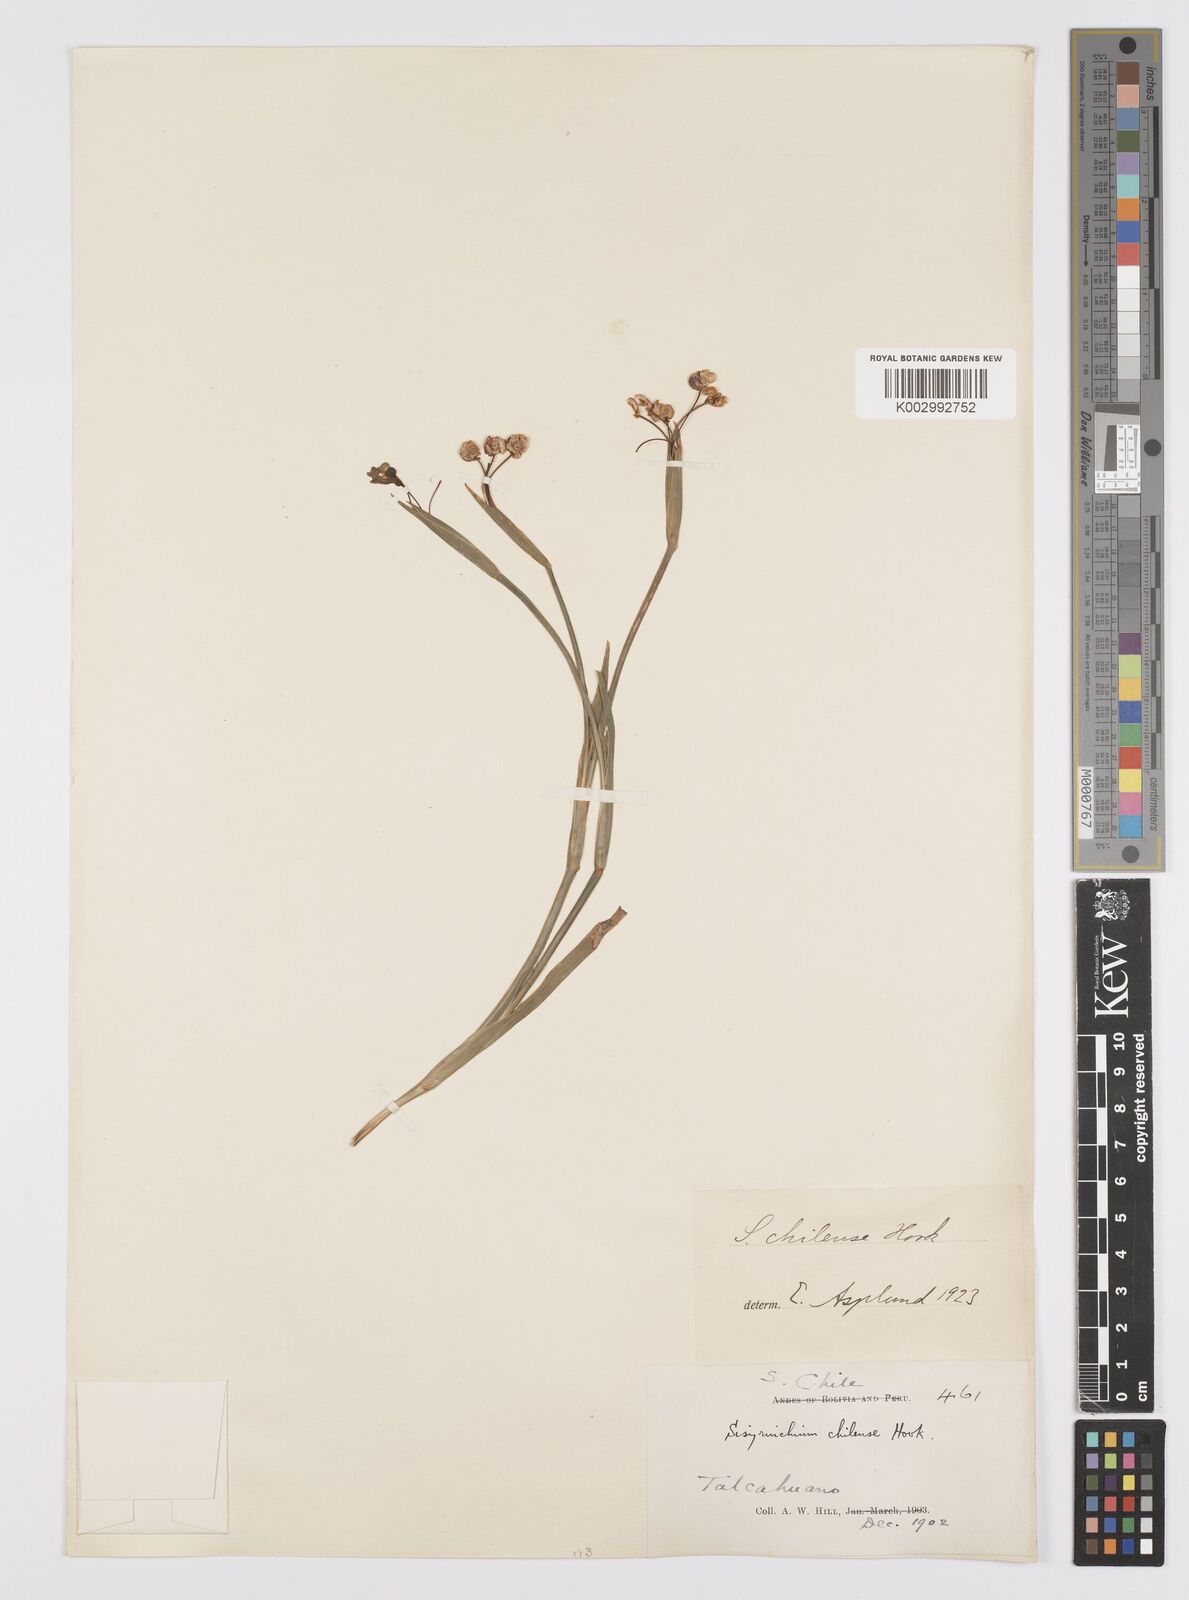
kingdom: Plantae
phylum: Tracheophyta
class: Liliopsida
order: Asparagales
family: Iridaceae
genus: Sisyrinchium
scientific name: Sisyrinchium chilense
